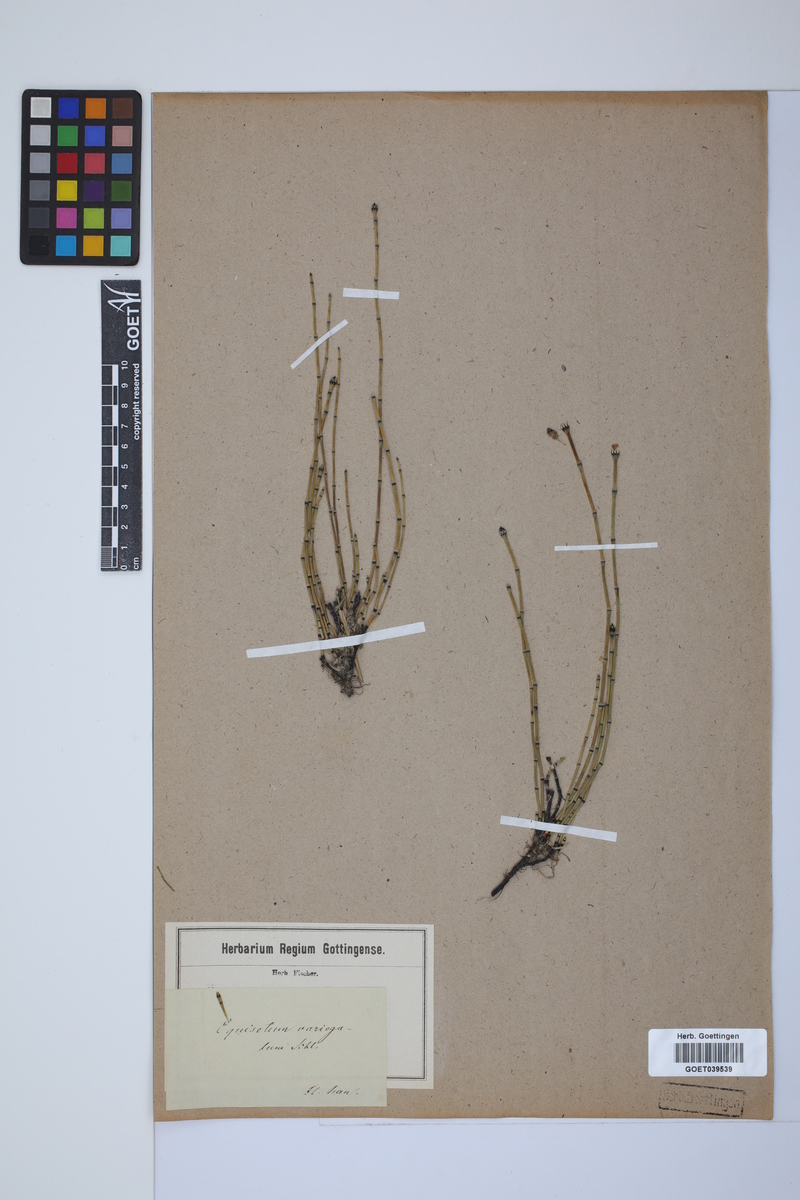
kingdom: Plantae
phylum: Tracheophyta
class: Polypodiopsida
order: Equisetales
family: Equisetaceae
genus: Equisetum
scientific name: Equisetum variegatum
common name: Variegated horsetail
